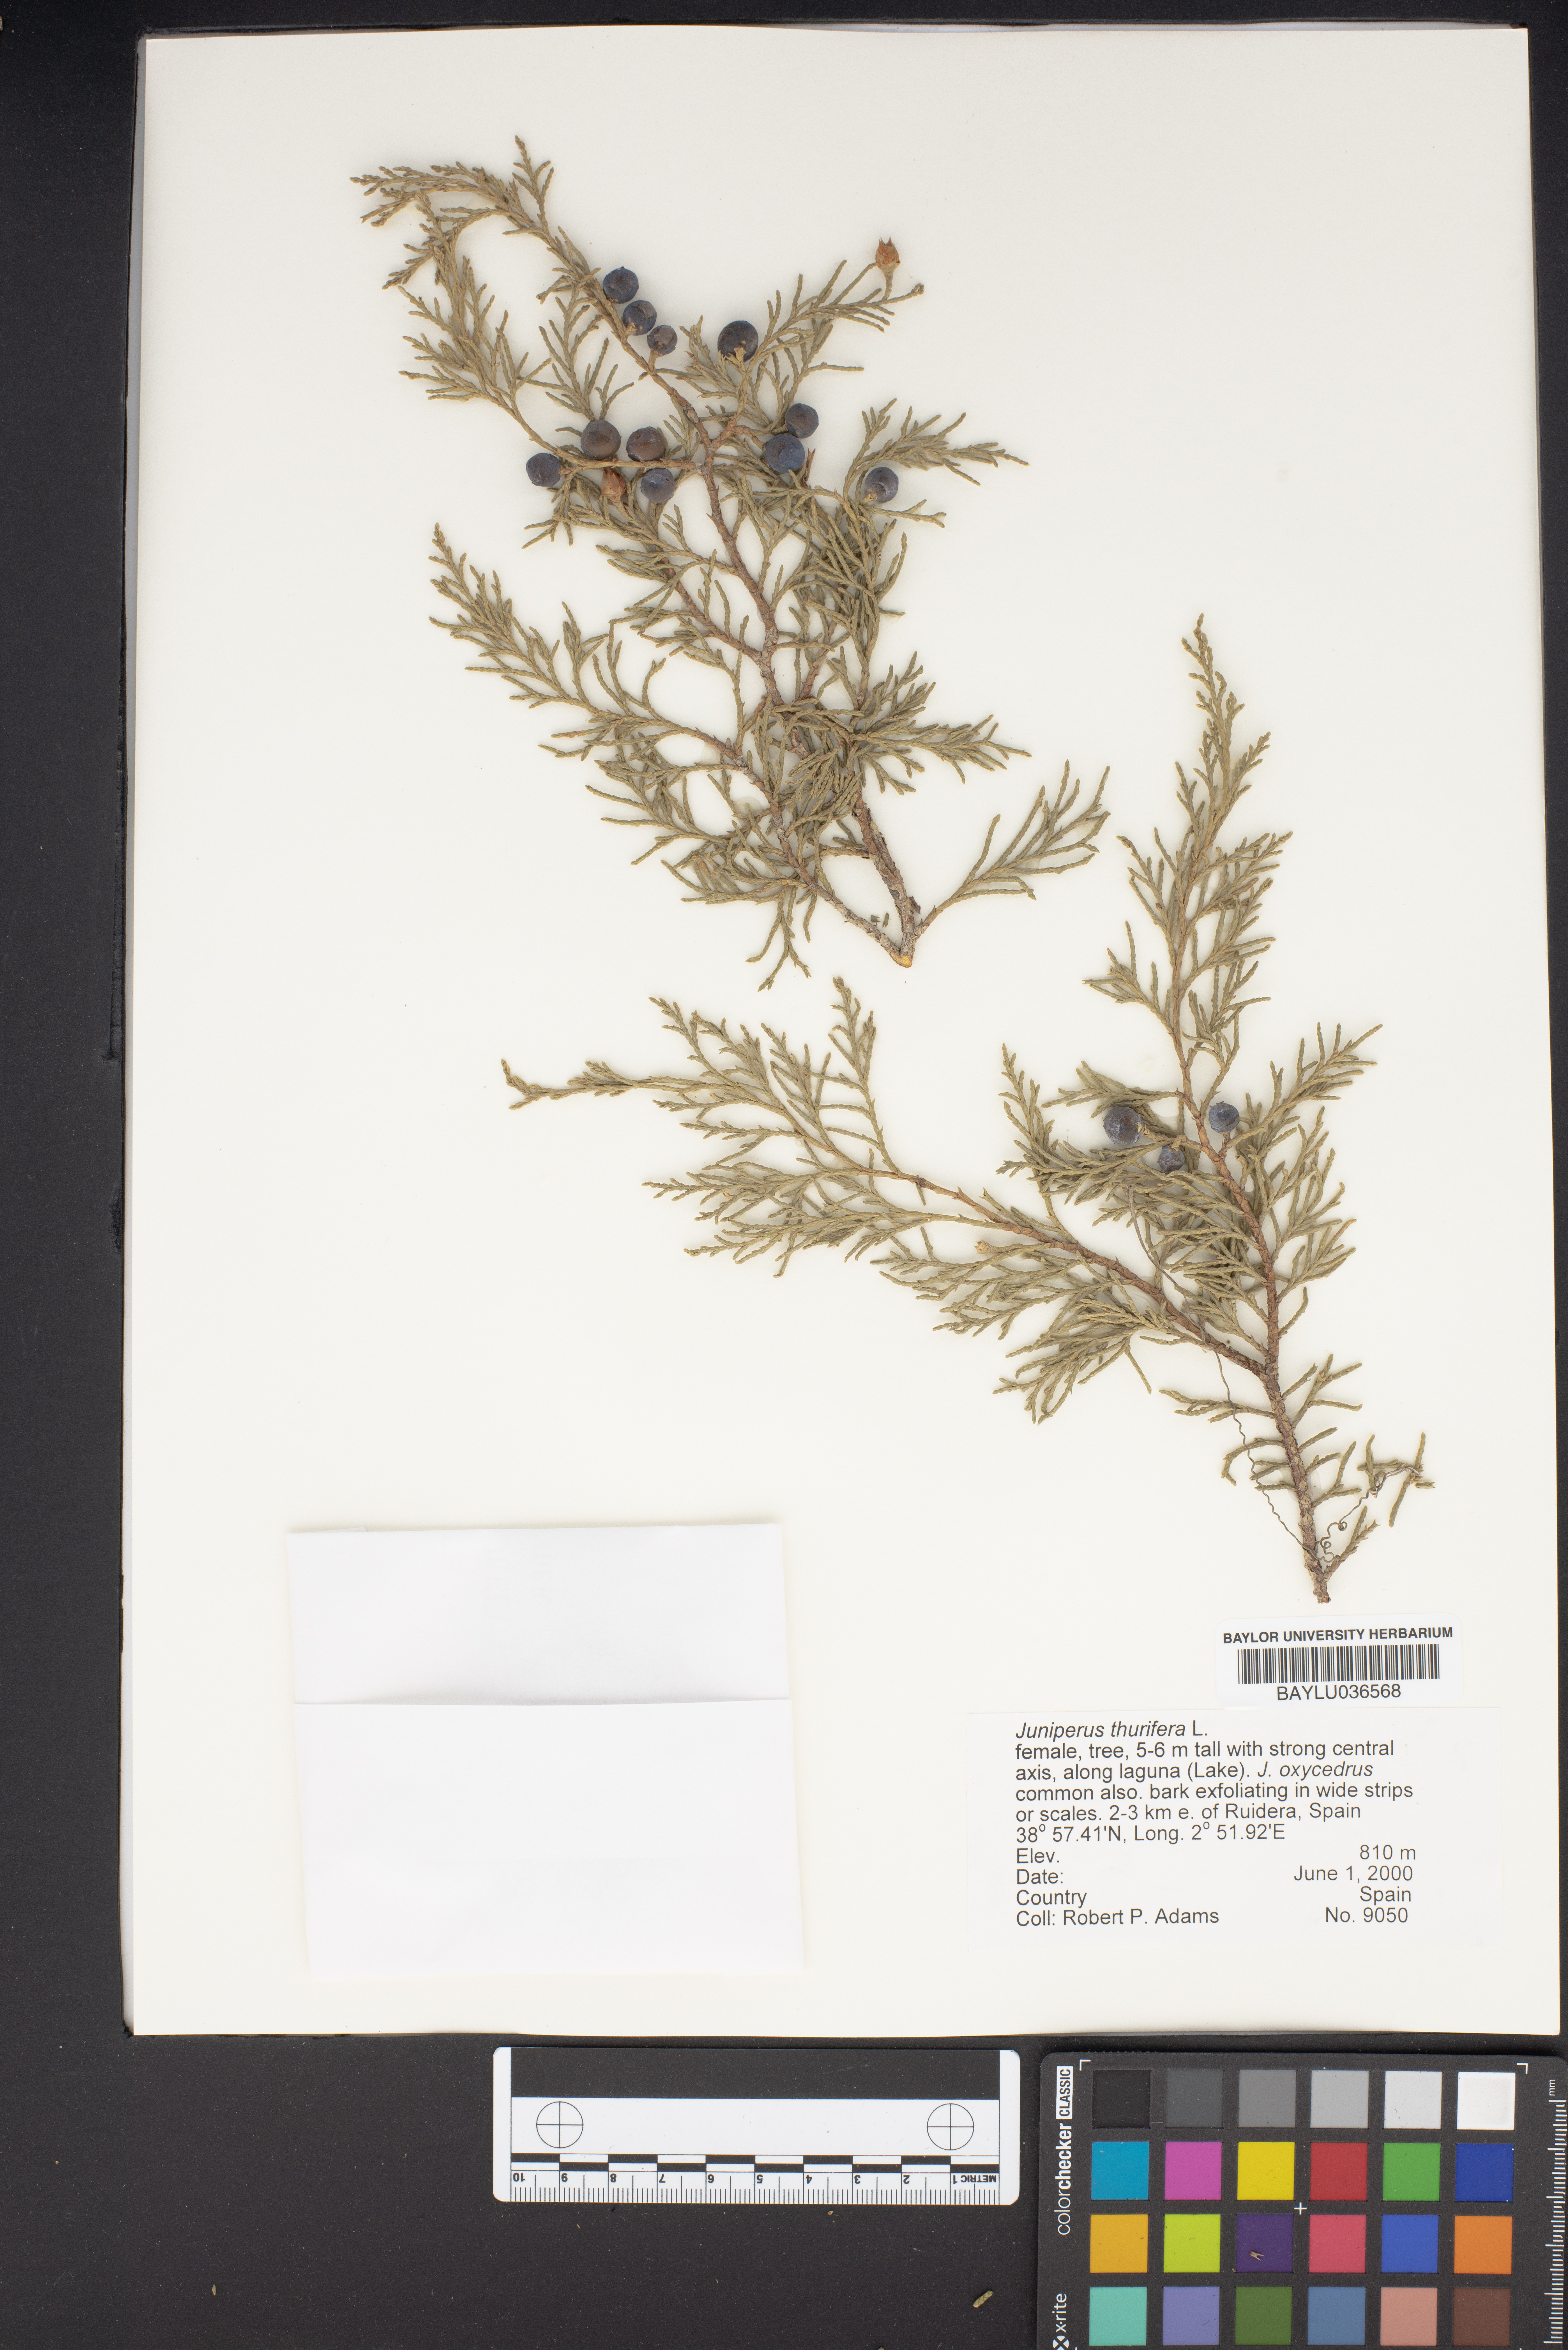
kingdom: Plantae
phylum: Tracheophyta
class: Pinopsida
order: Pinales
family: Cupressaceae
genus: Juniperus
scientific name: Juniperus thurifera
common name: Incense juniper
